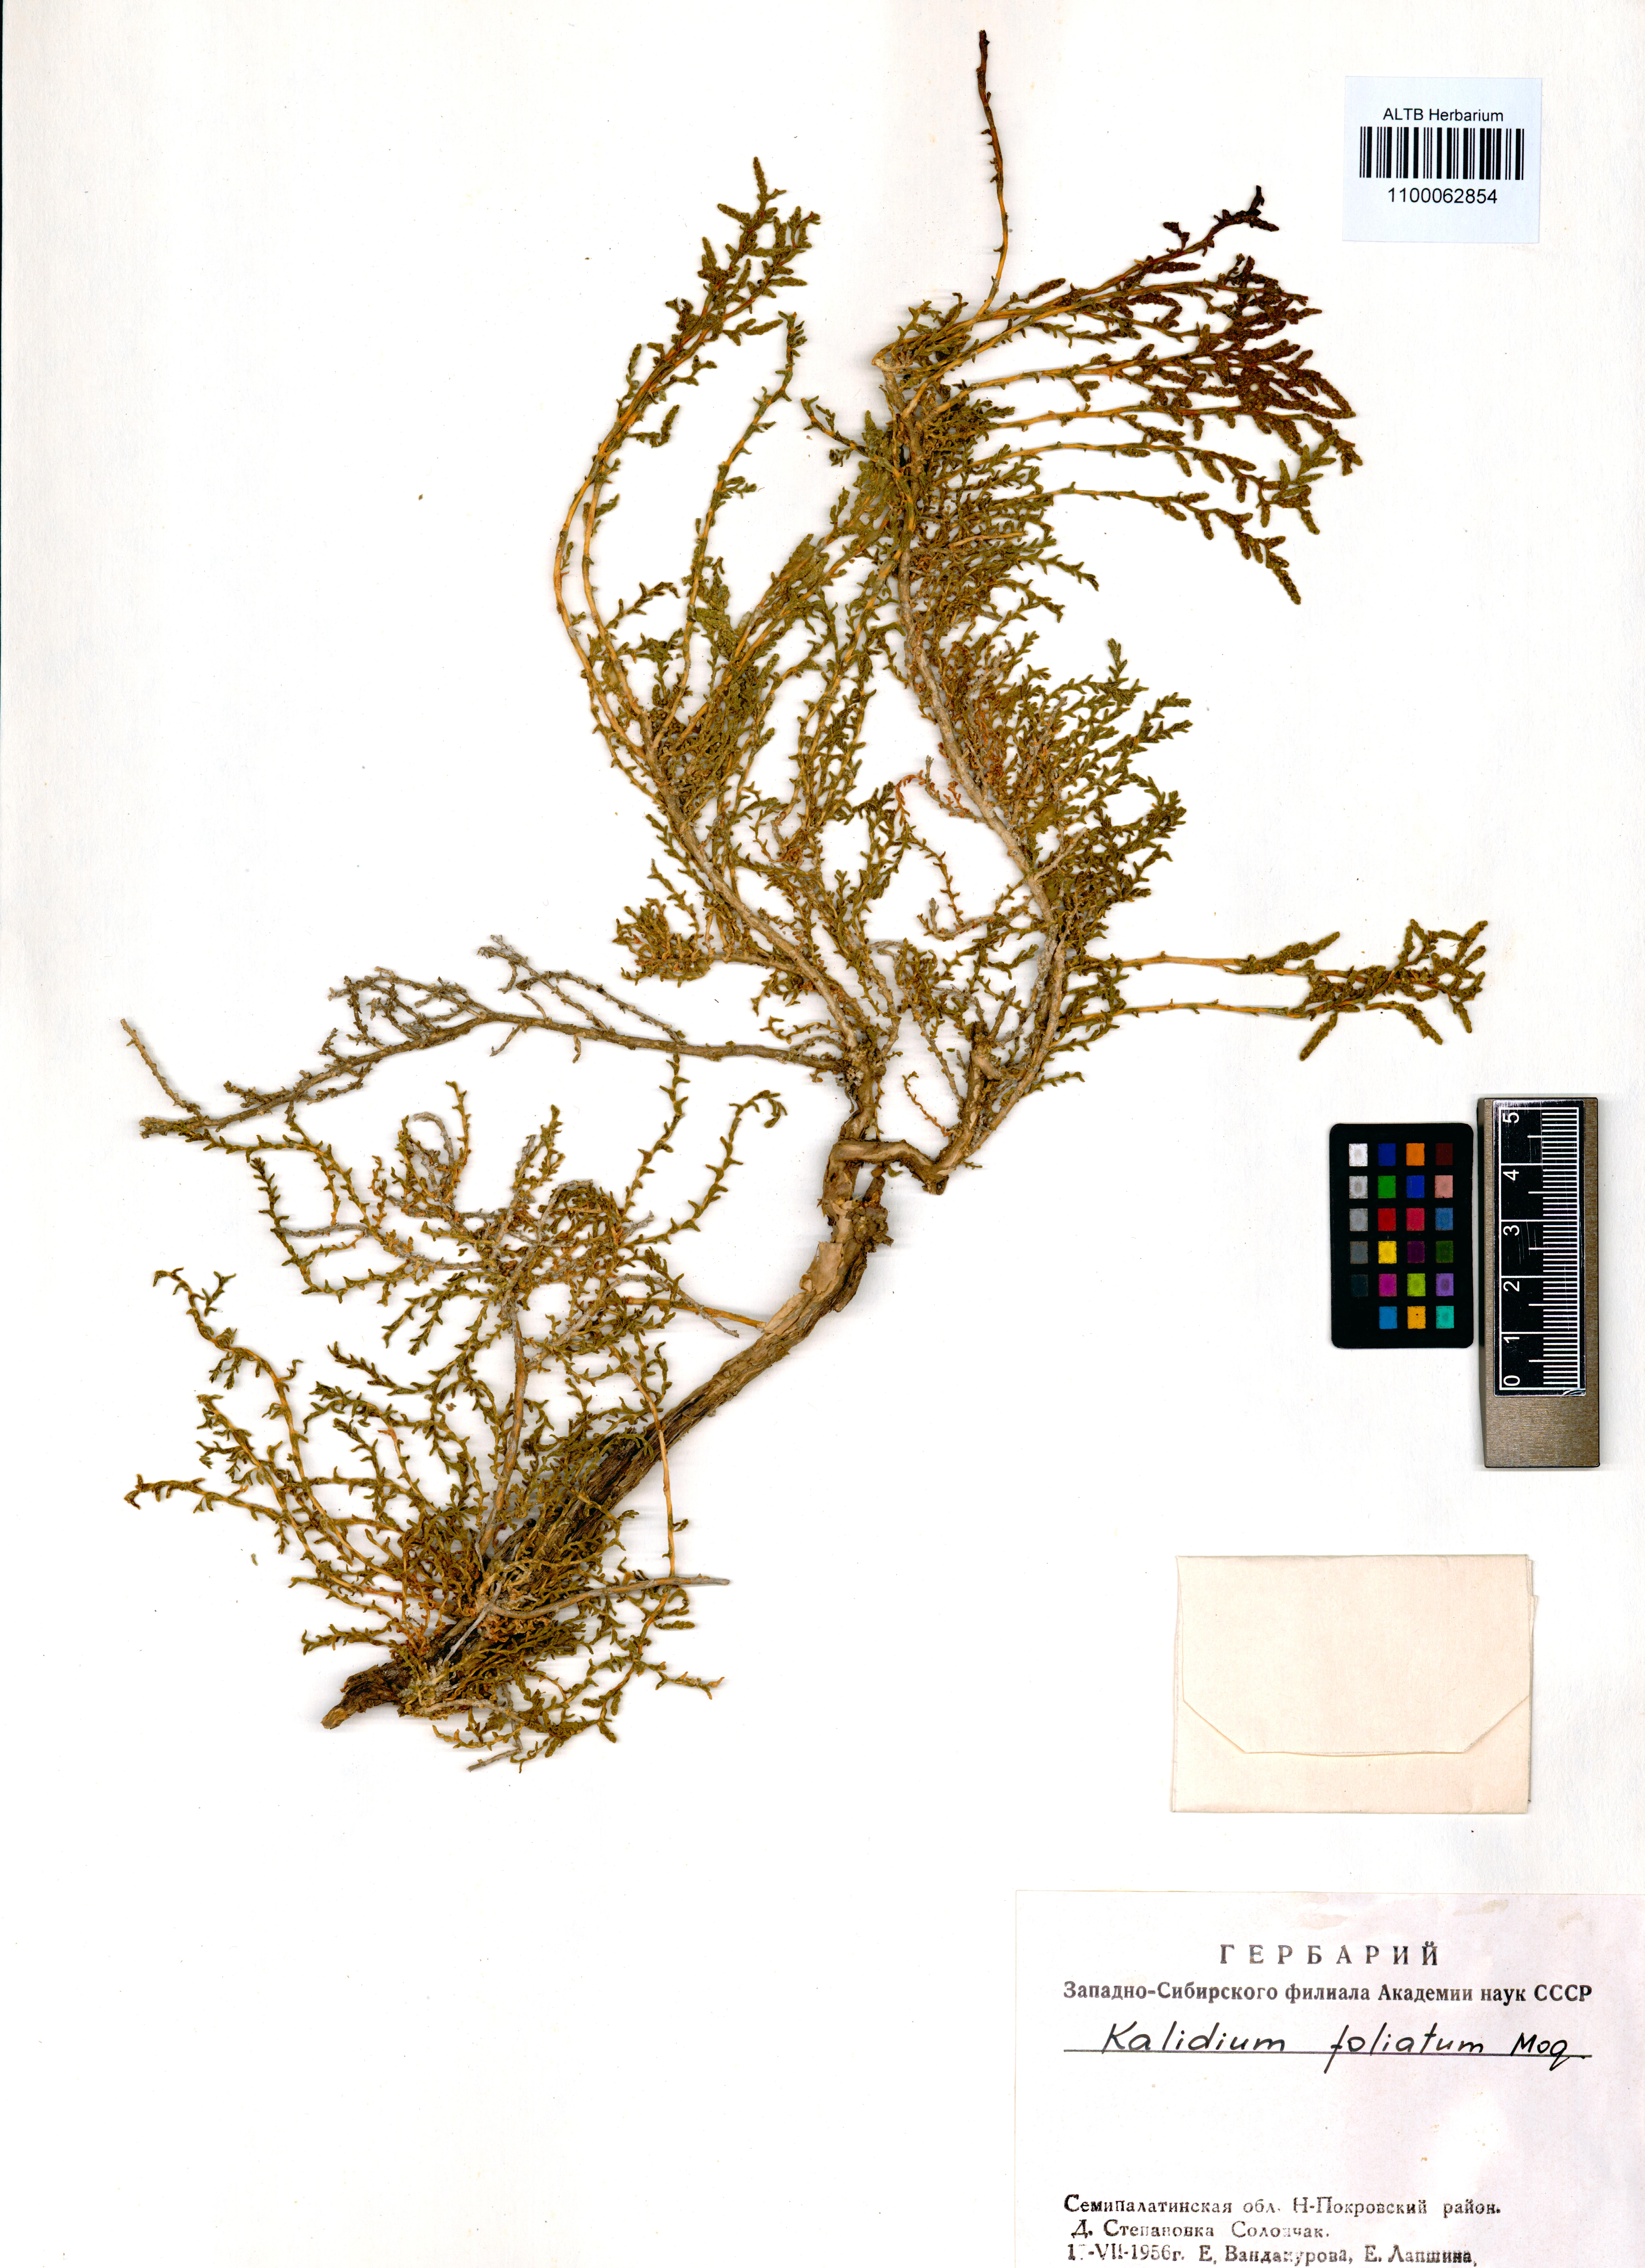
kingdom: Plantae
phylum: Tracheophyta
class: Magnoliopsida
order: Caryophyllales
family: Amaranthaceae
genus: Kalidium
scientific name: Kalidium foliatum
